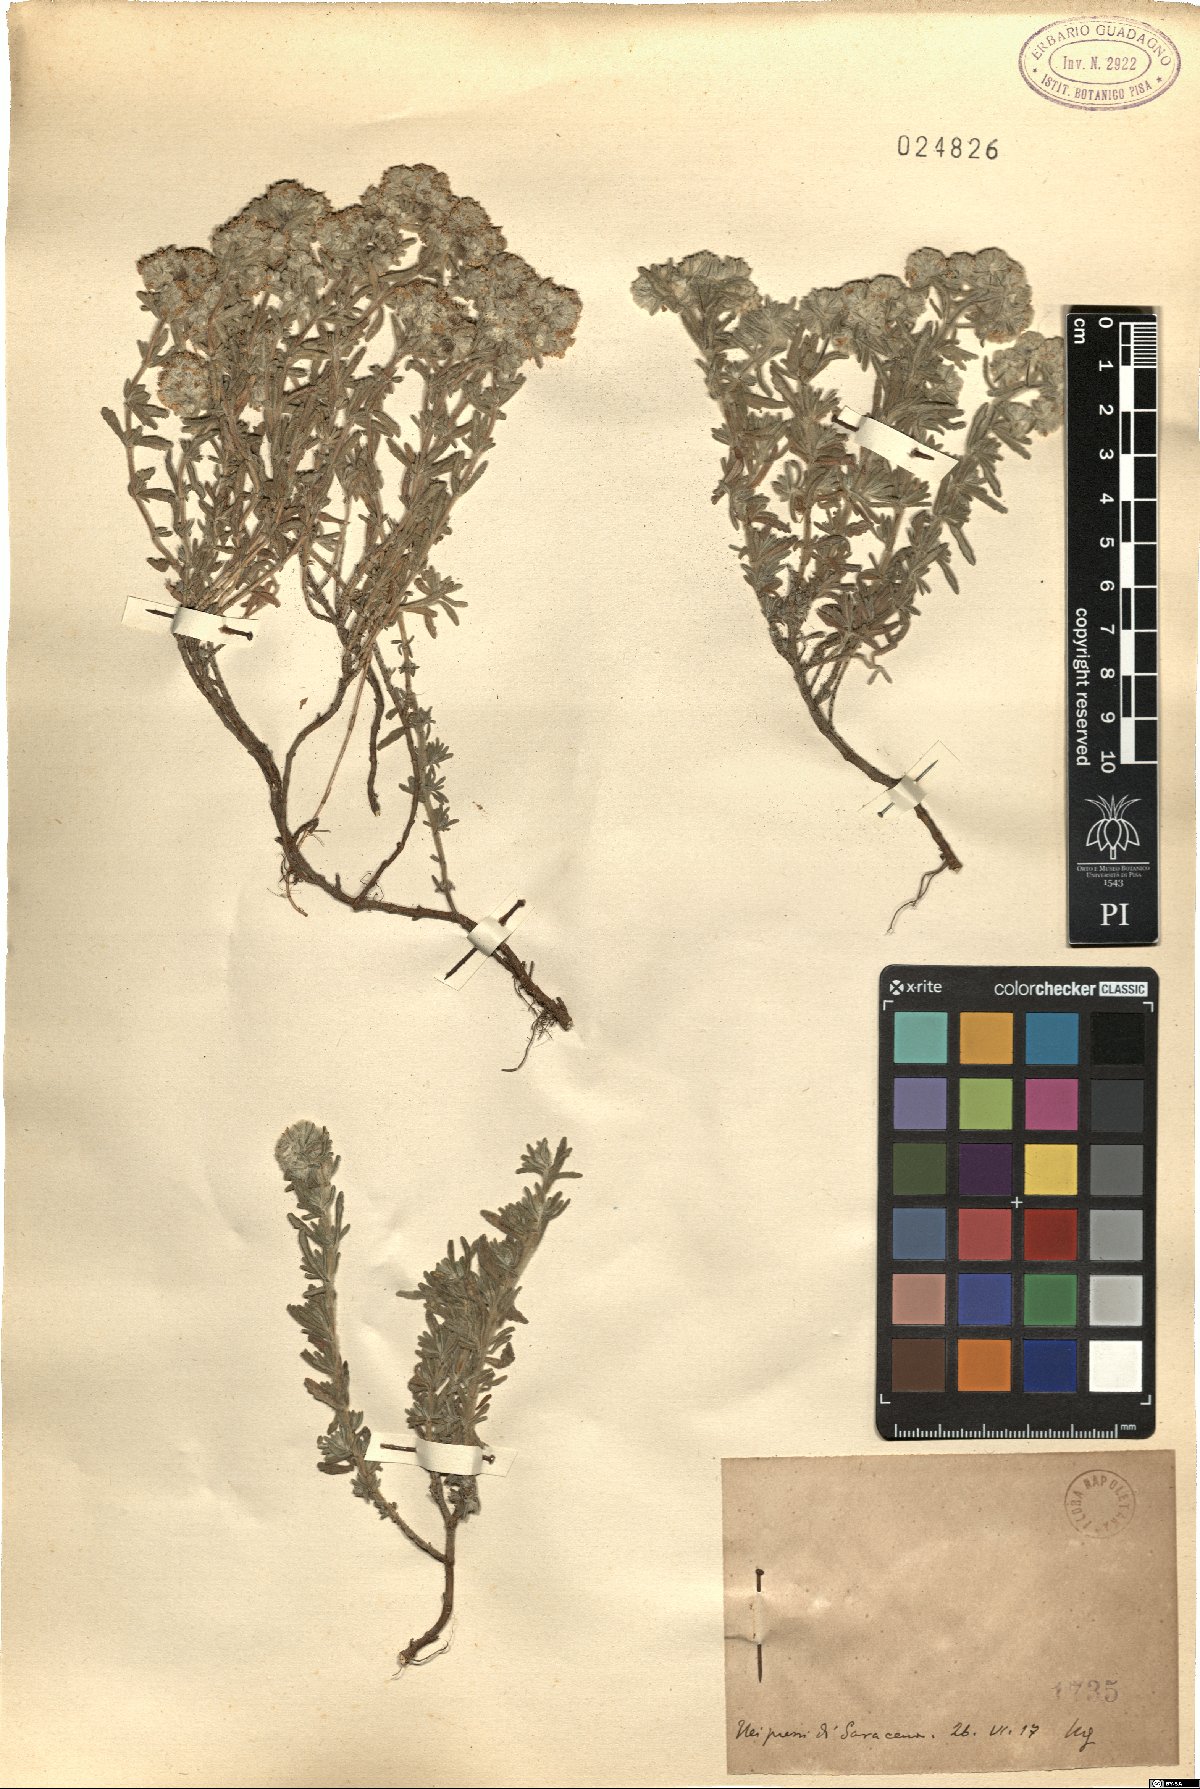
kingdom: Plantae
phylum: Tracheophyta
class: Magnoliopsida
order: Lamiales
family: Lamiaceae
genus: Teucrium
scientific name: Teucrium
